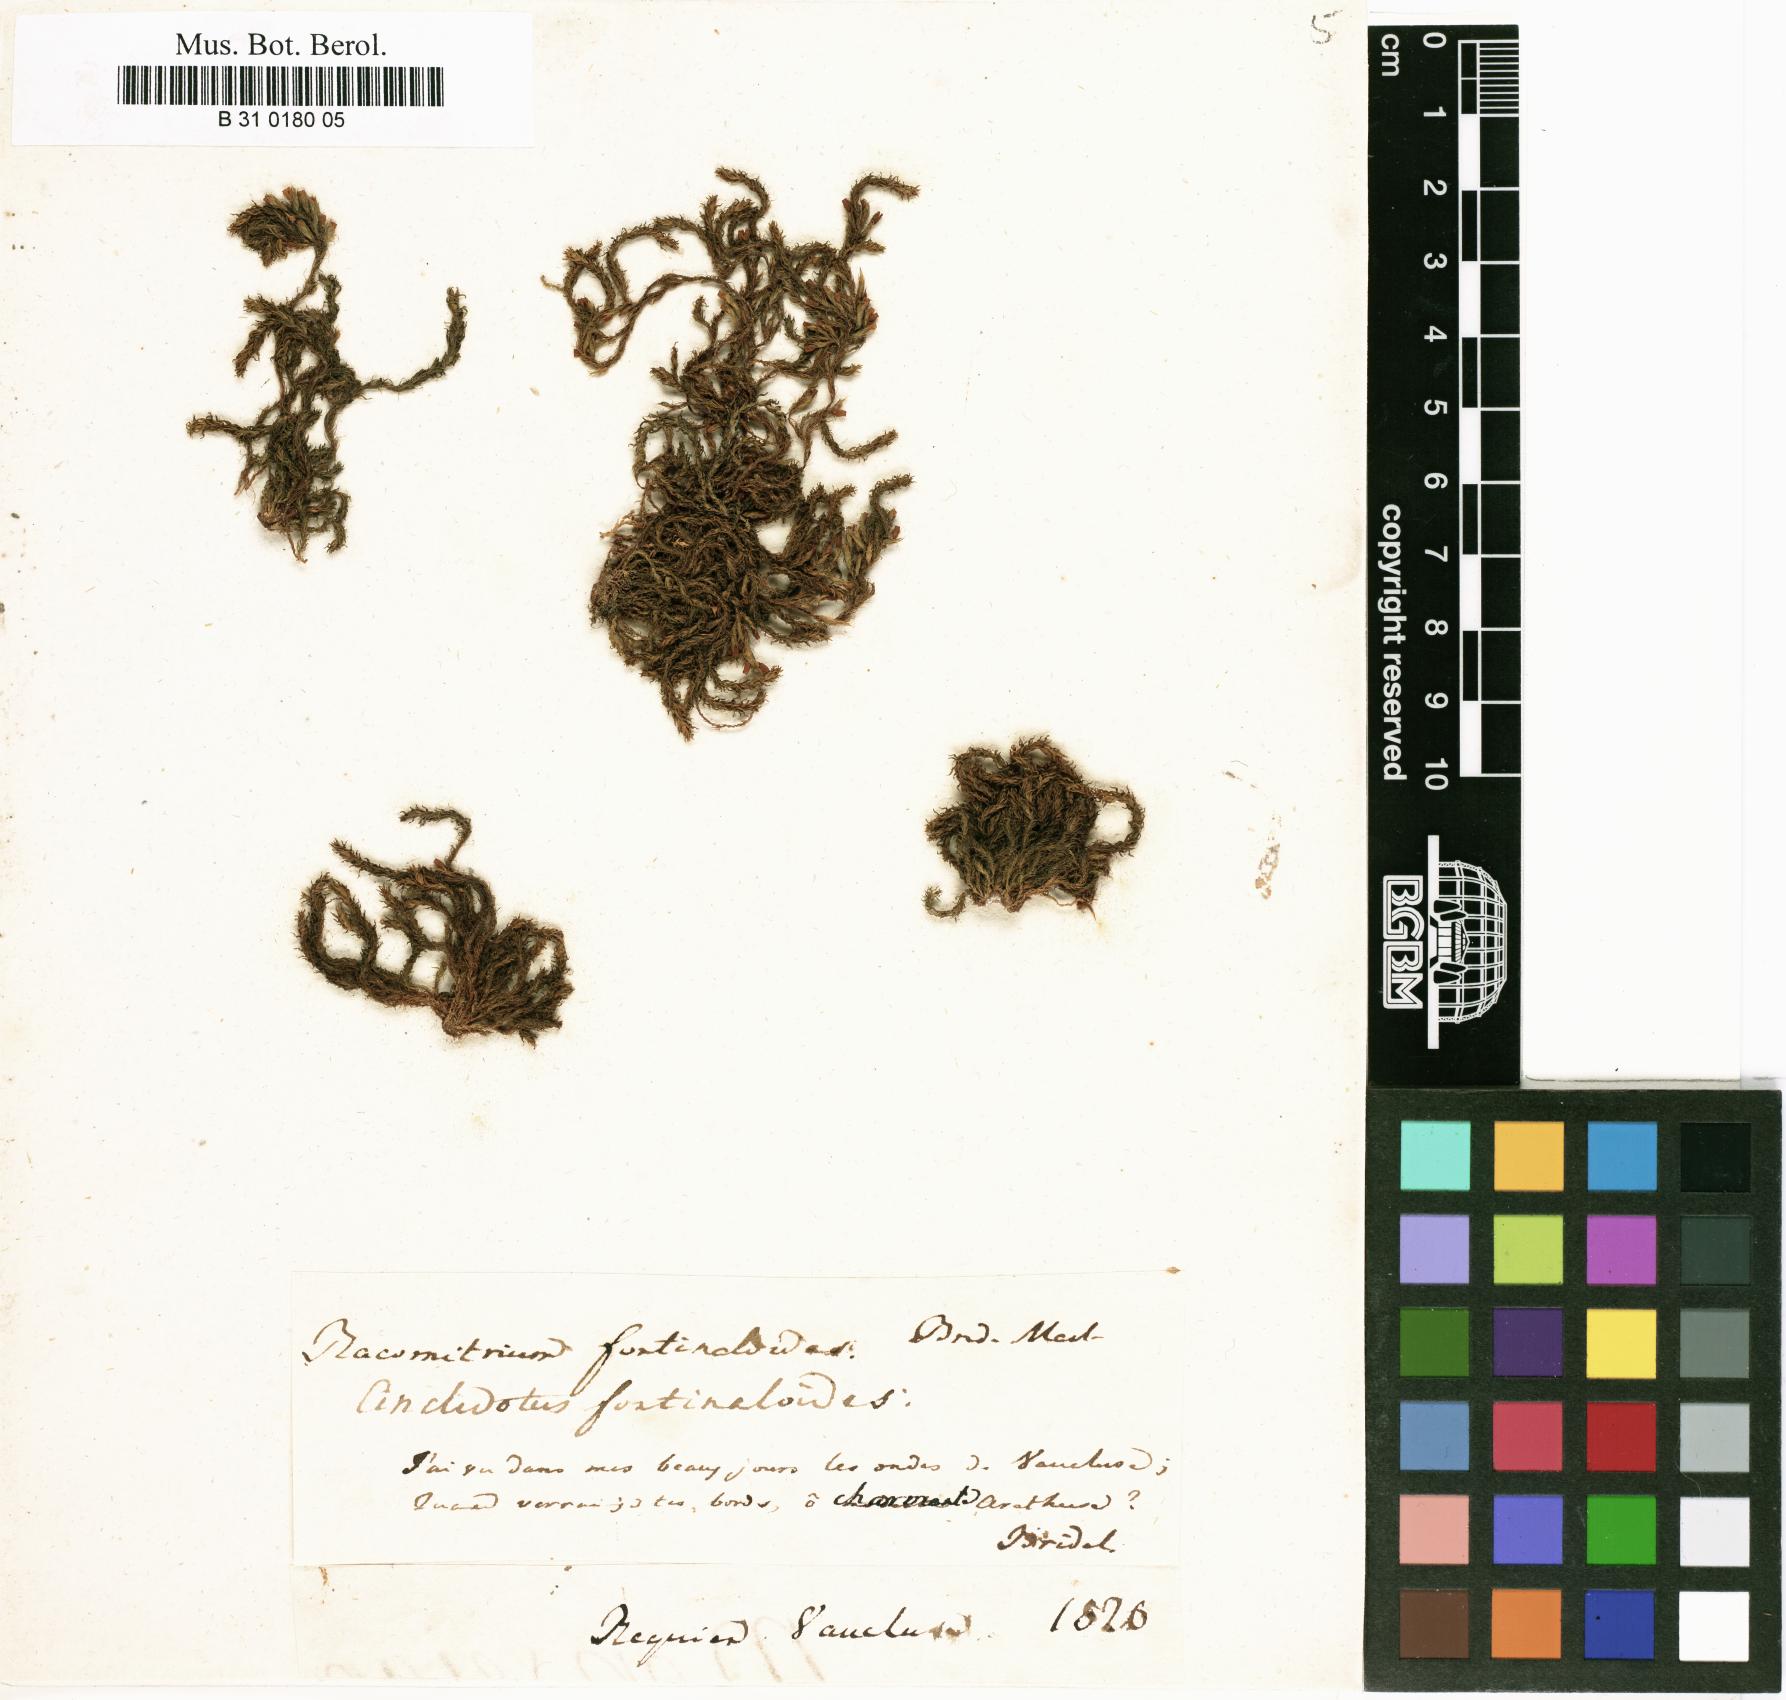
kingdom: Plantae
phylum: Bryophyta
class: Bryopsida
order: Pottiales
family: Pottiaceae
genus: Cinclidotus
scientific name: Cinclidotus fontinaloides
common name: Smaller lattice-moss
